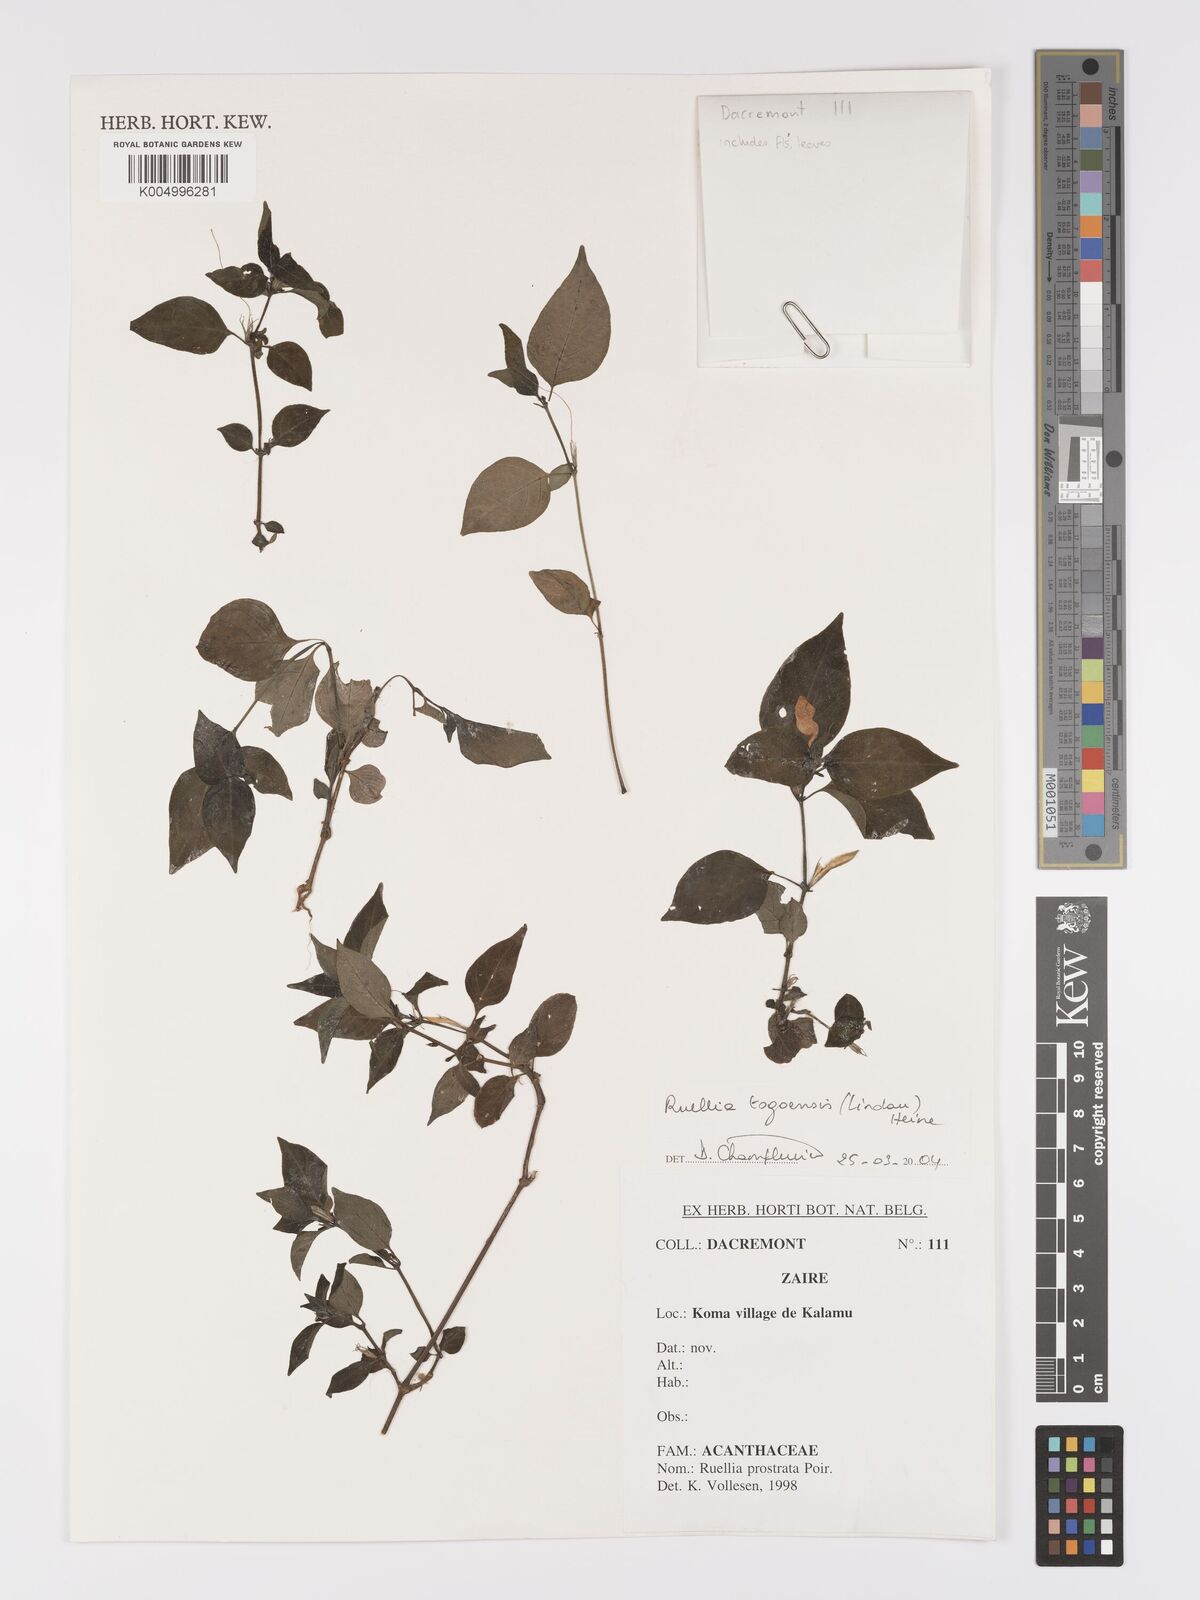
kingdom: Plantae
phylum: Tracheophyta
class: Magnoliopsida
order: Lamiales
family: Acanthaceae
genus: Ruellia
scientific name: Ruellia togoensis
